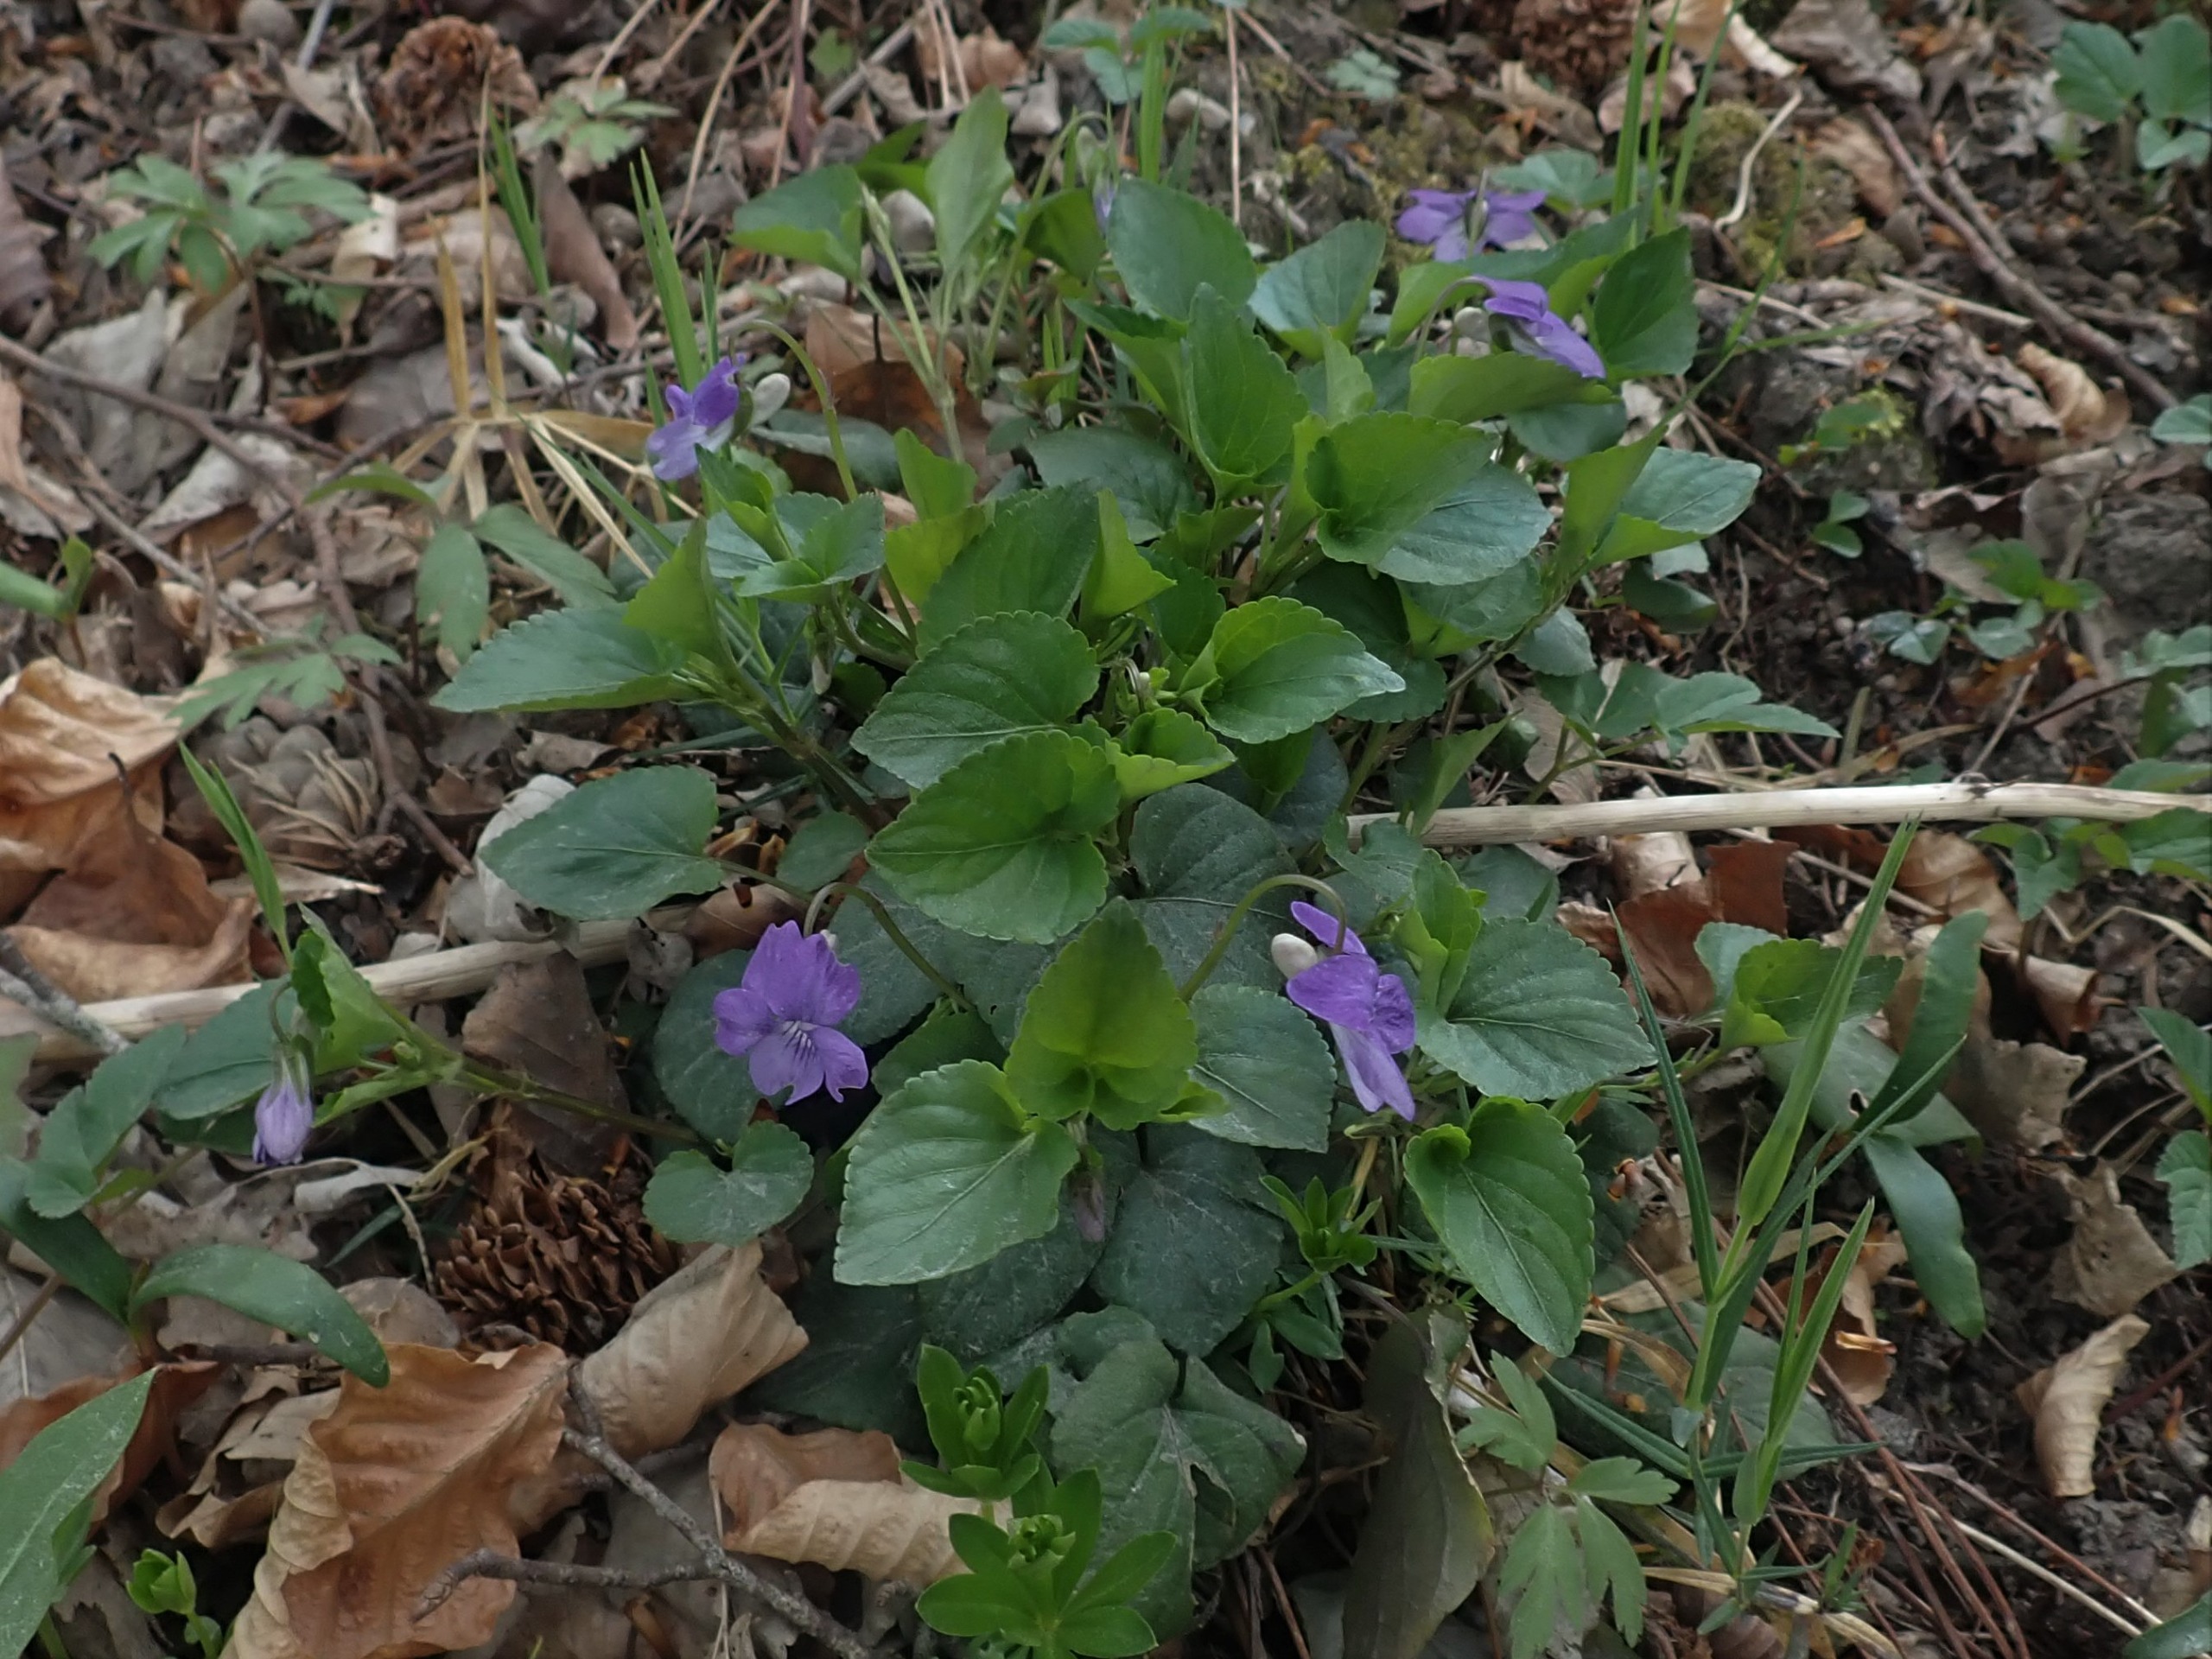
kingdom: Plantae
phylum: Tracheophyta
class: Magnoliopsida
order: Malpighiales
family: Violaceae
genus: Viola
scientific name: Viola riviniana
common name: Krat-viol
